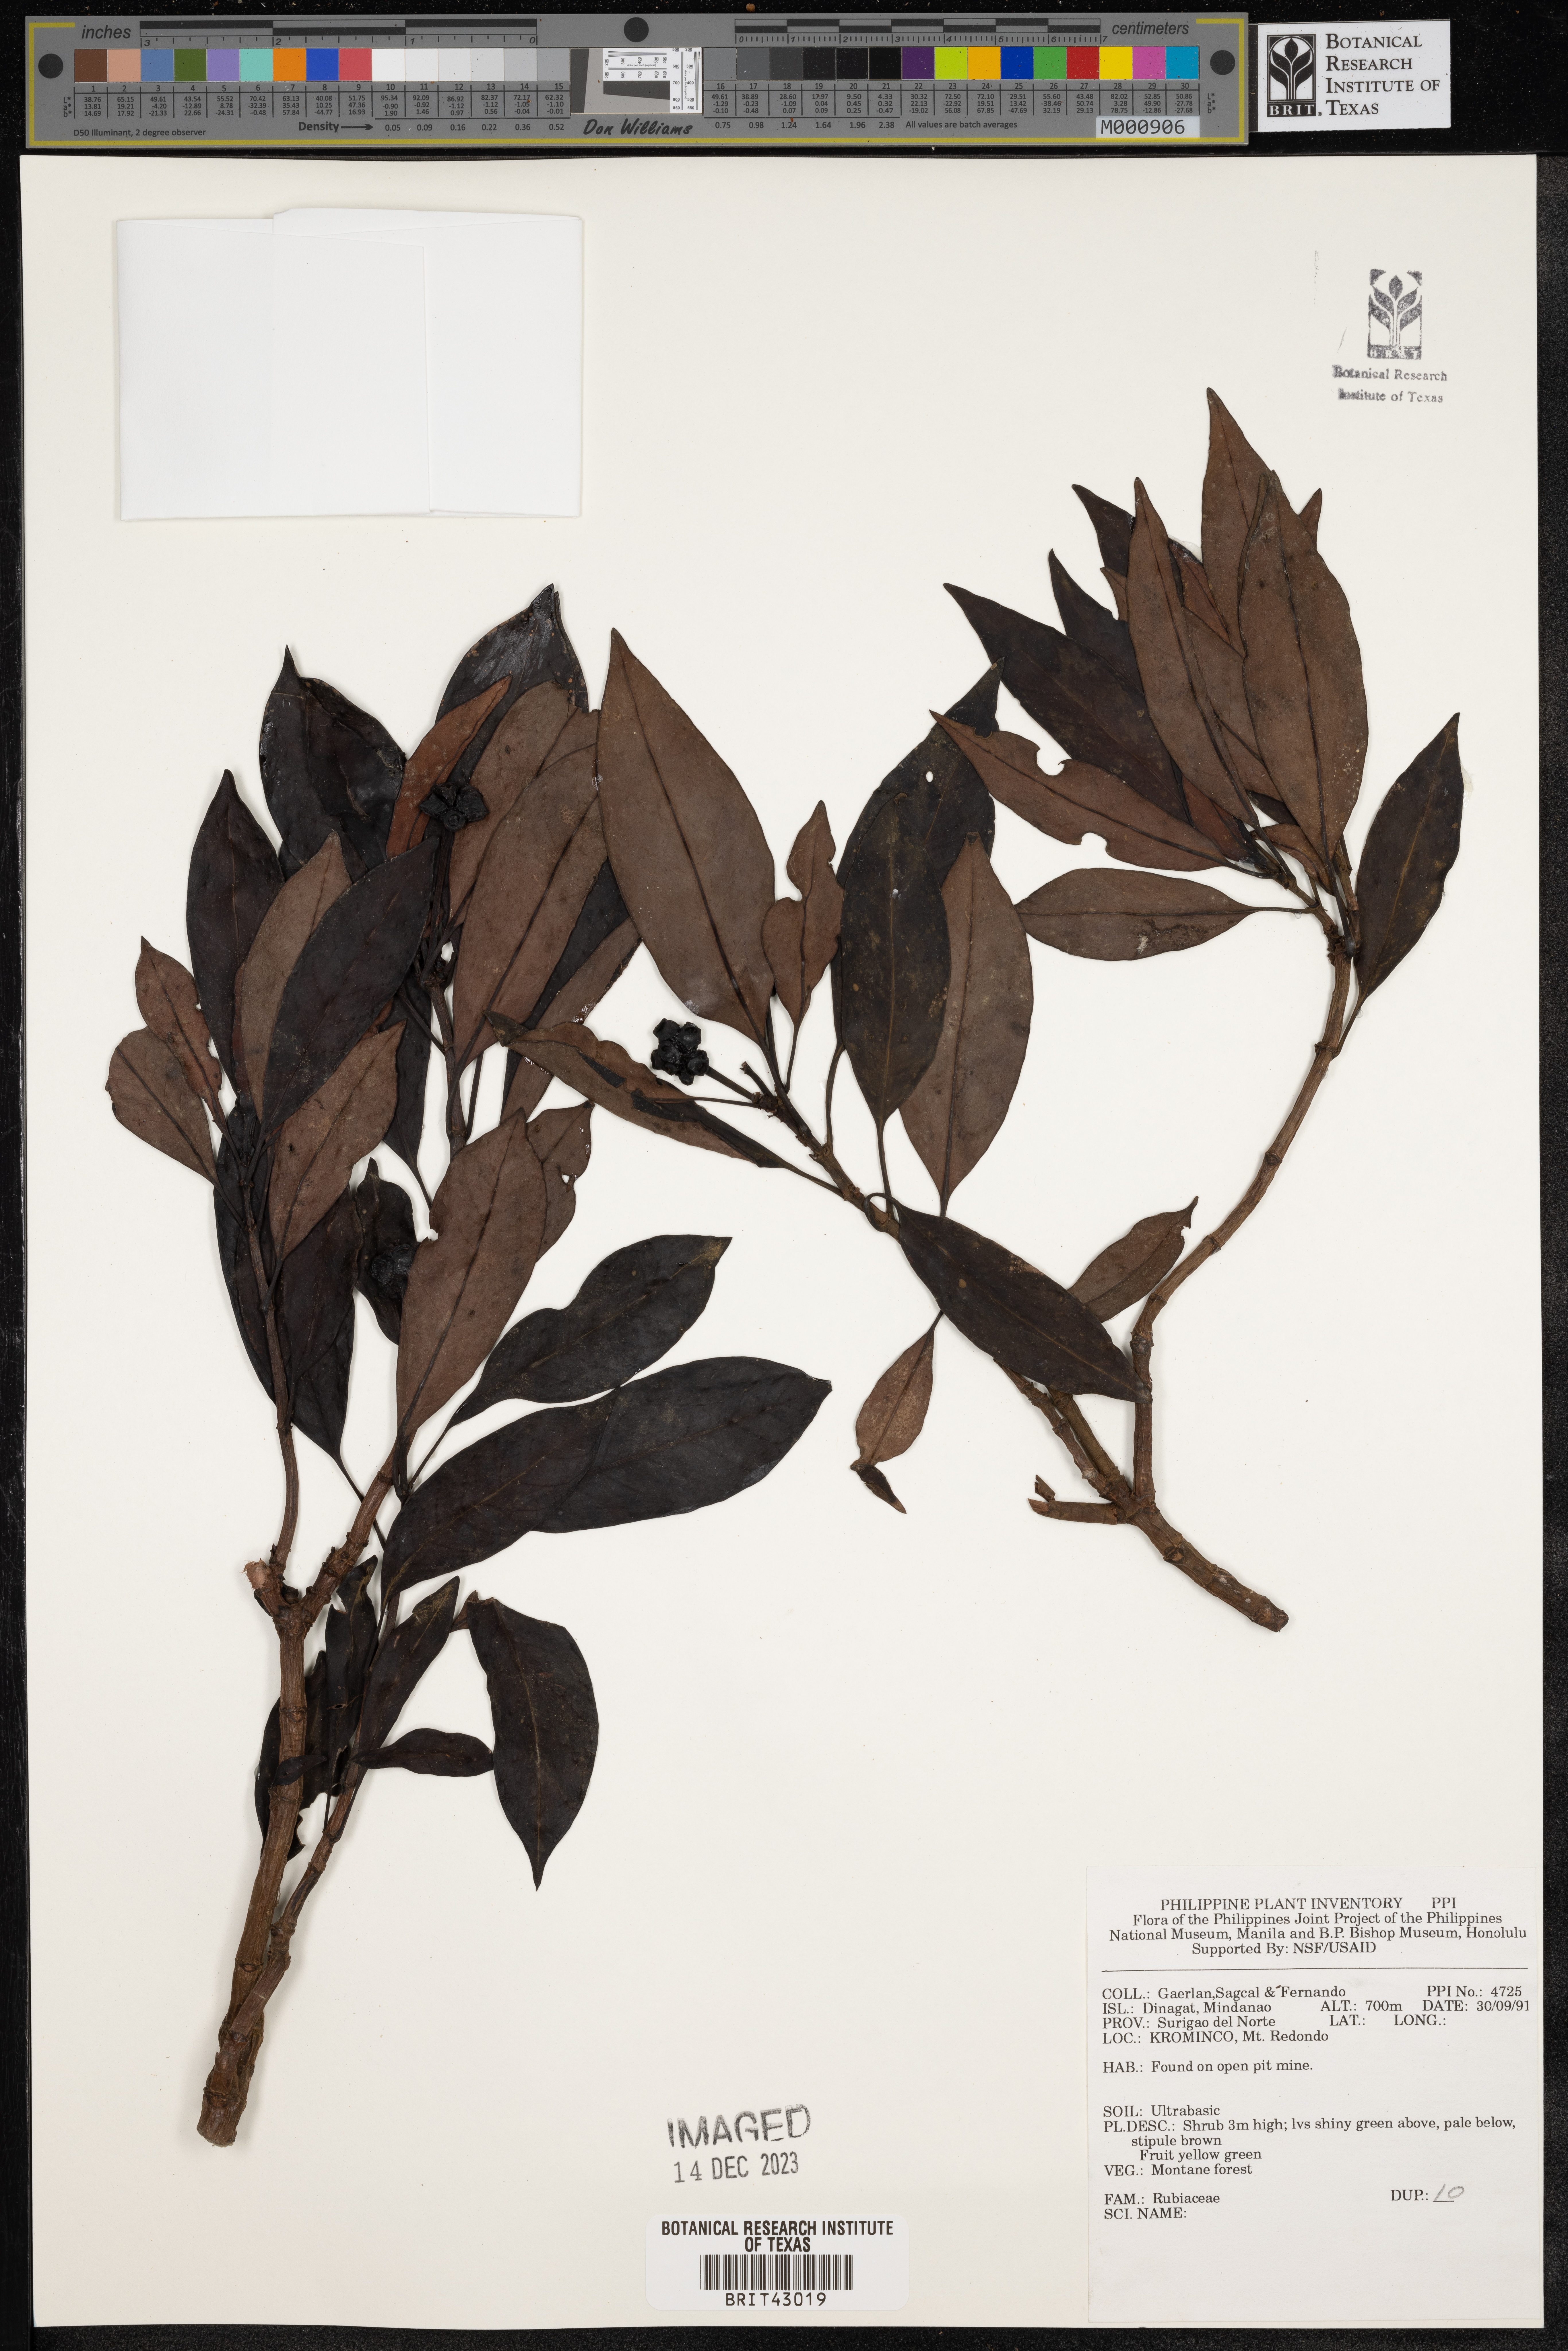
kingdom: Plantae
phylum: Tracheophyta
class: Magnoliopsida
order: Gentianales
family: Rubiaceae
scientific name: Rubiaceae
